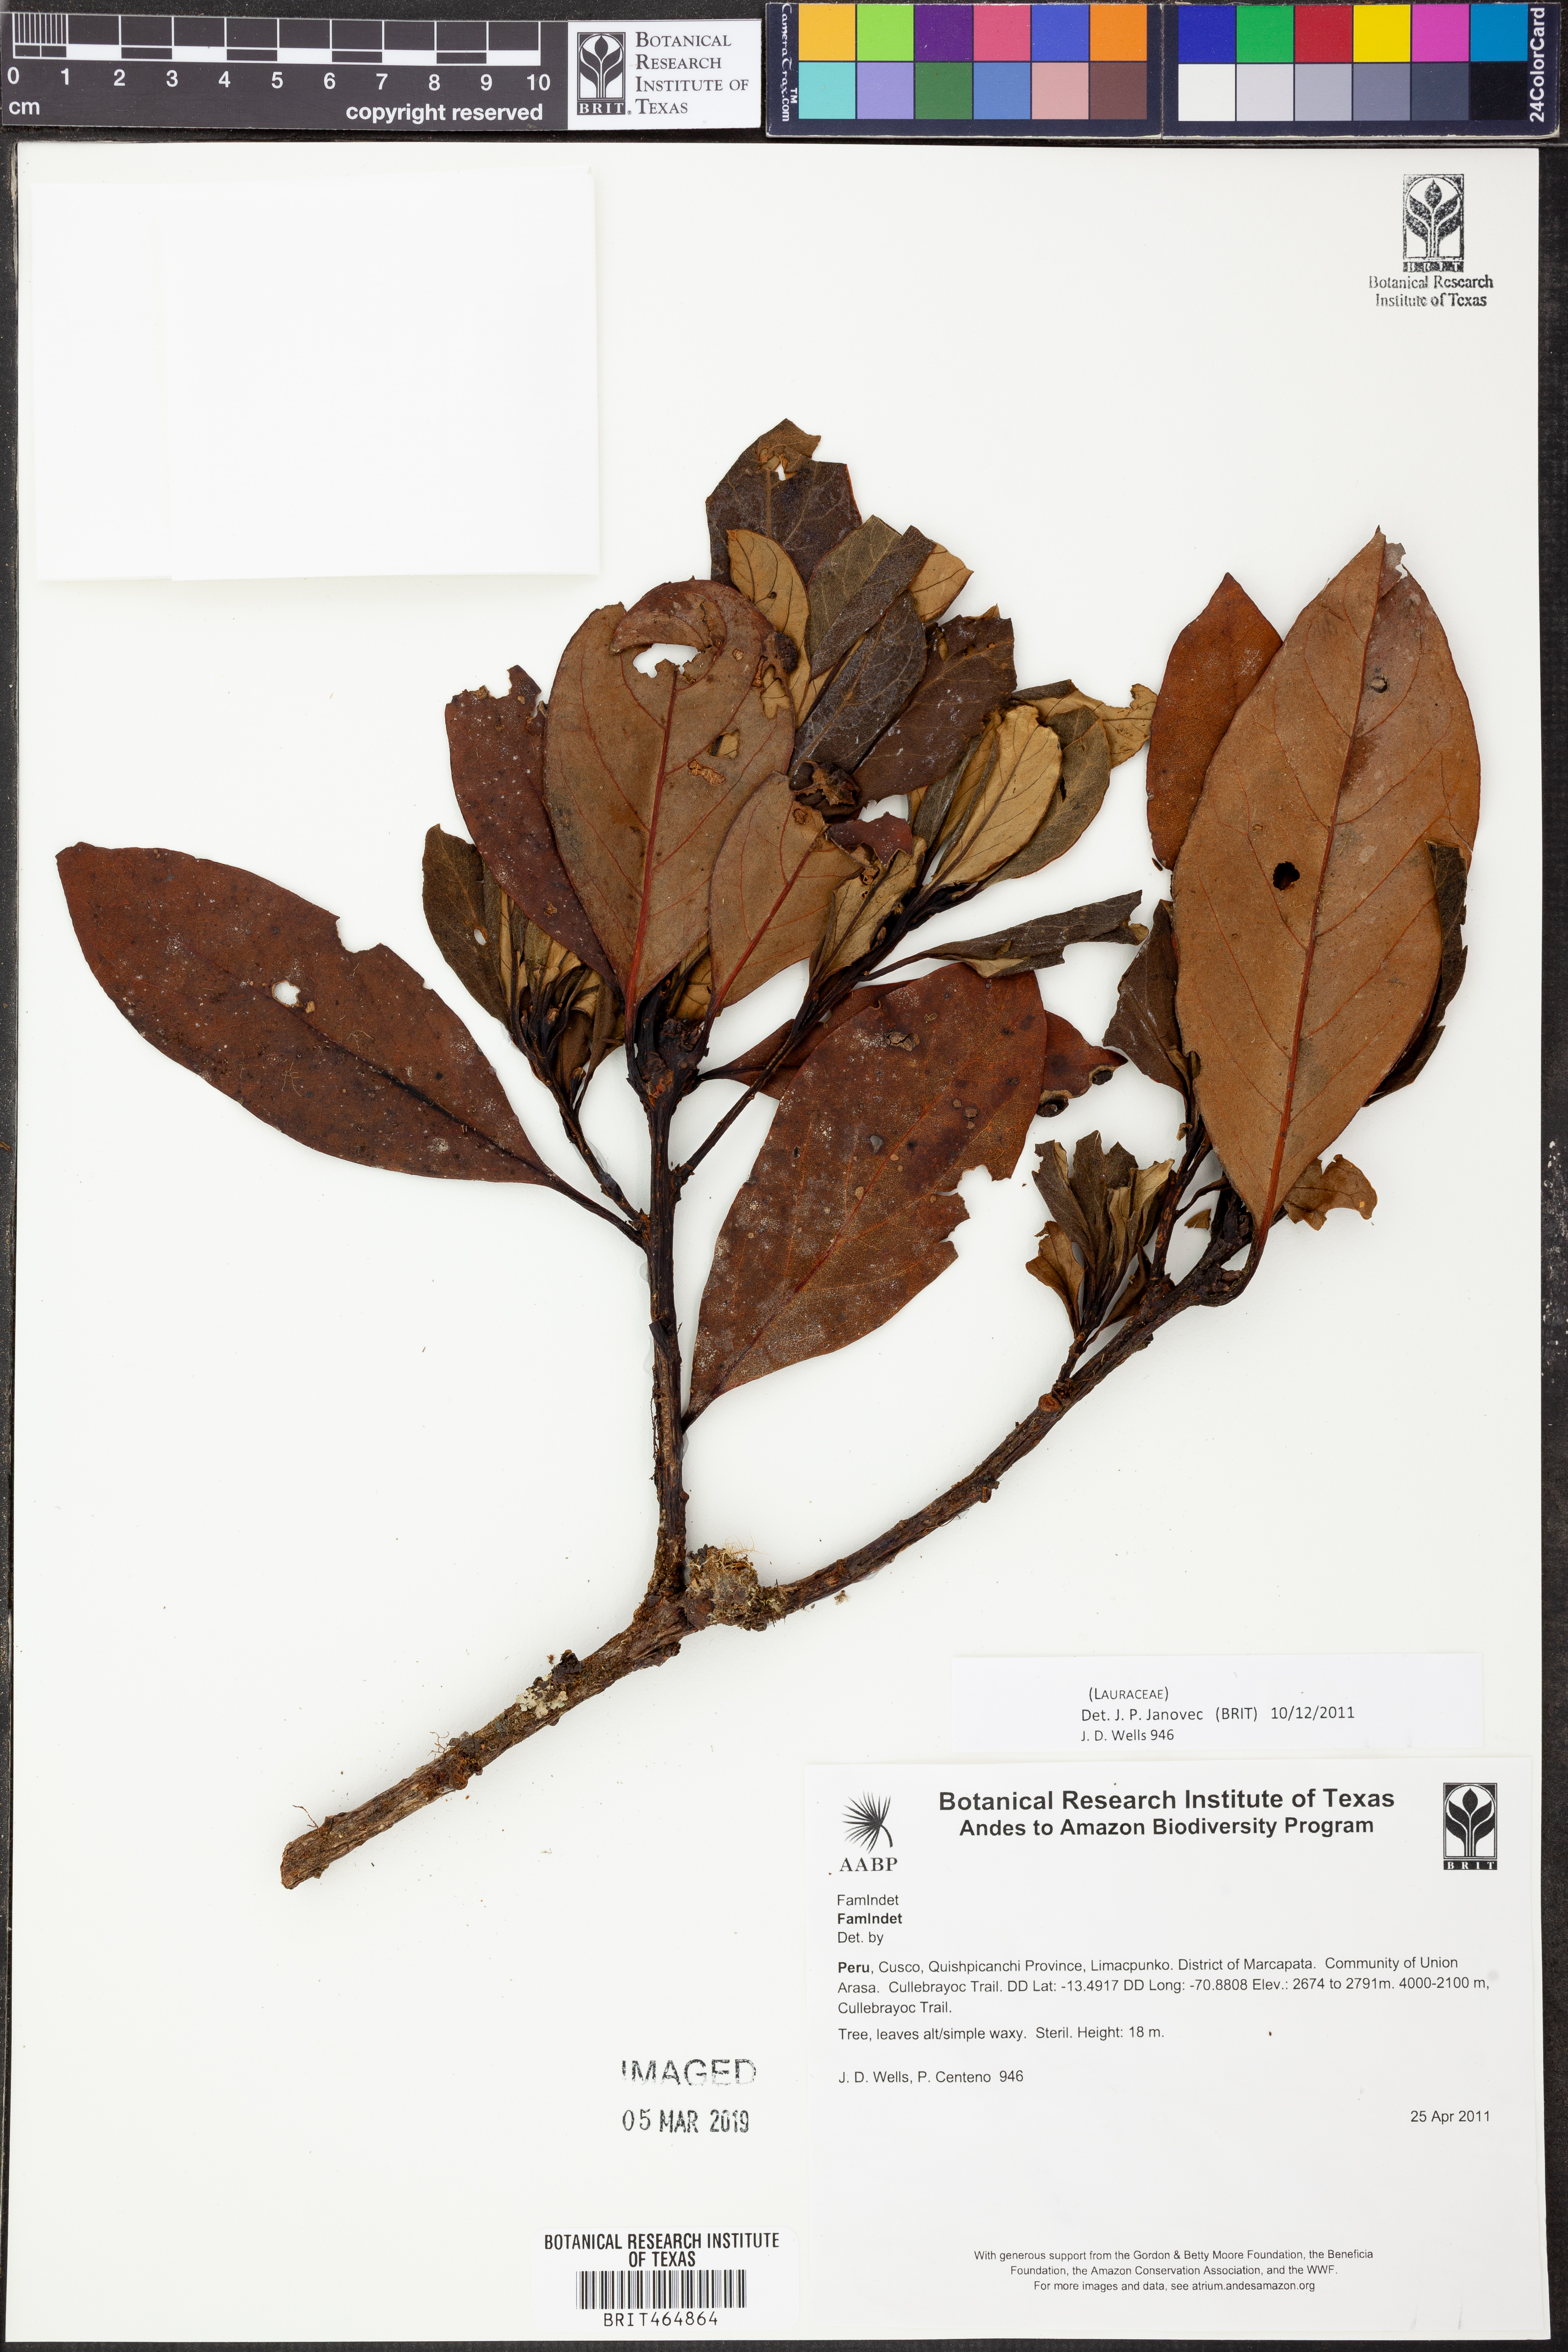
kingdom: Plantae
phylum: Tracheophyta
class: Magnoliopsida
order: Laurales
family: Lauraceae
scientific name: Lauraceae
